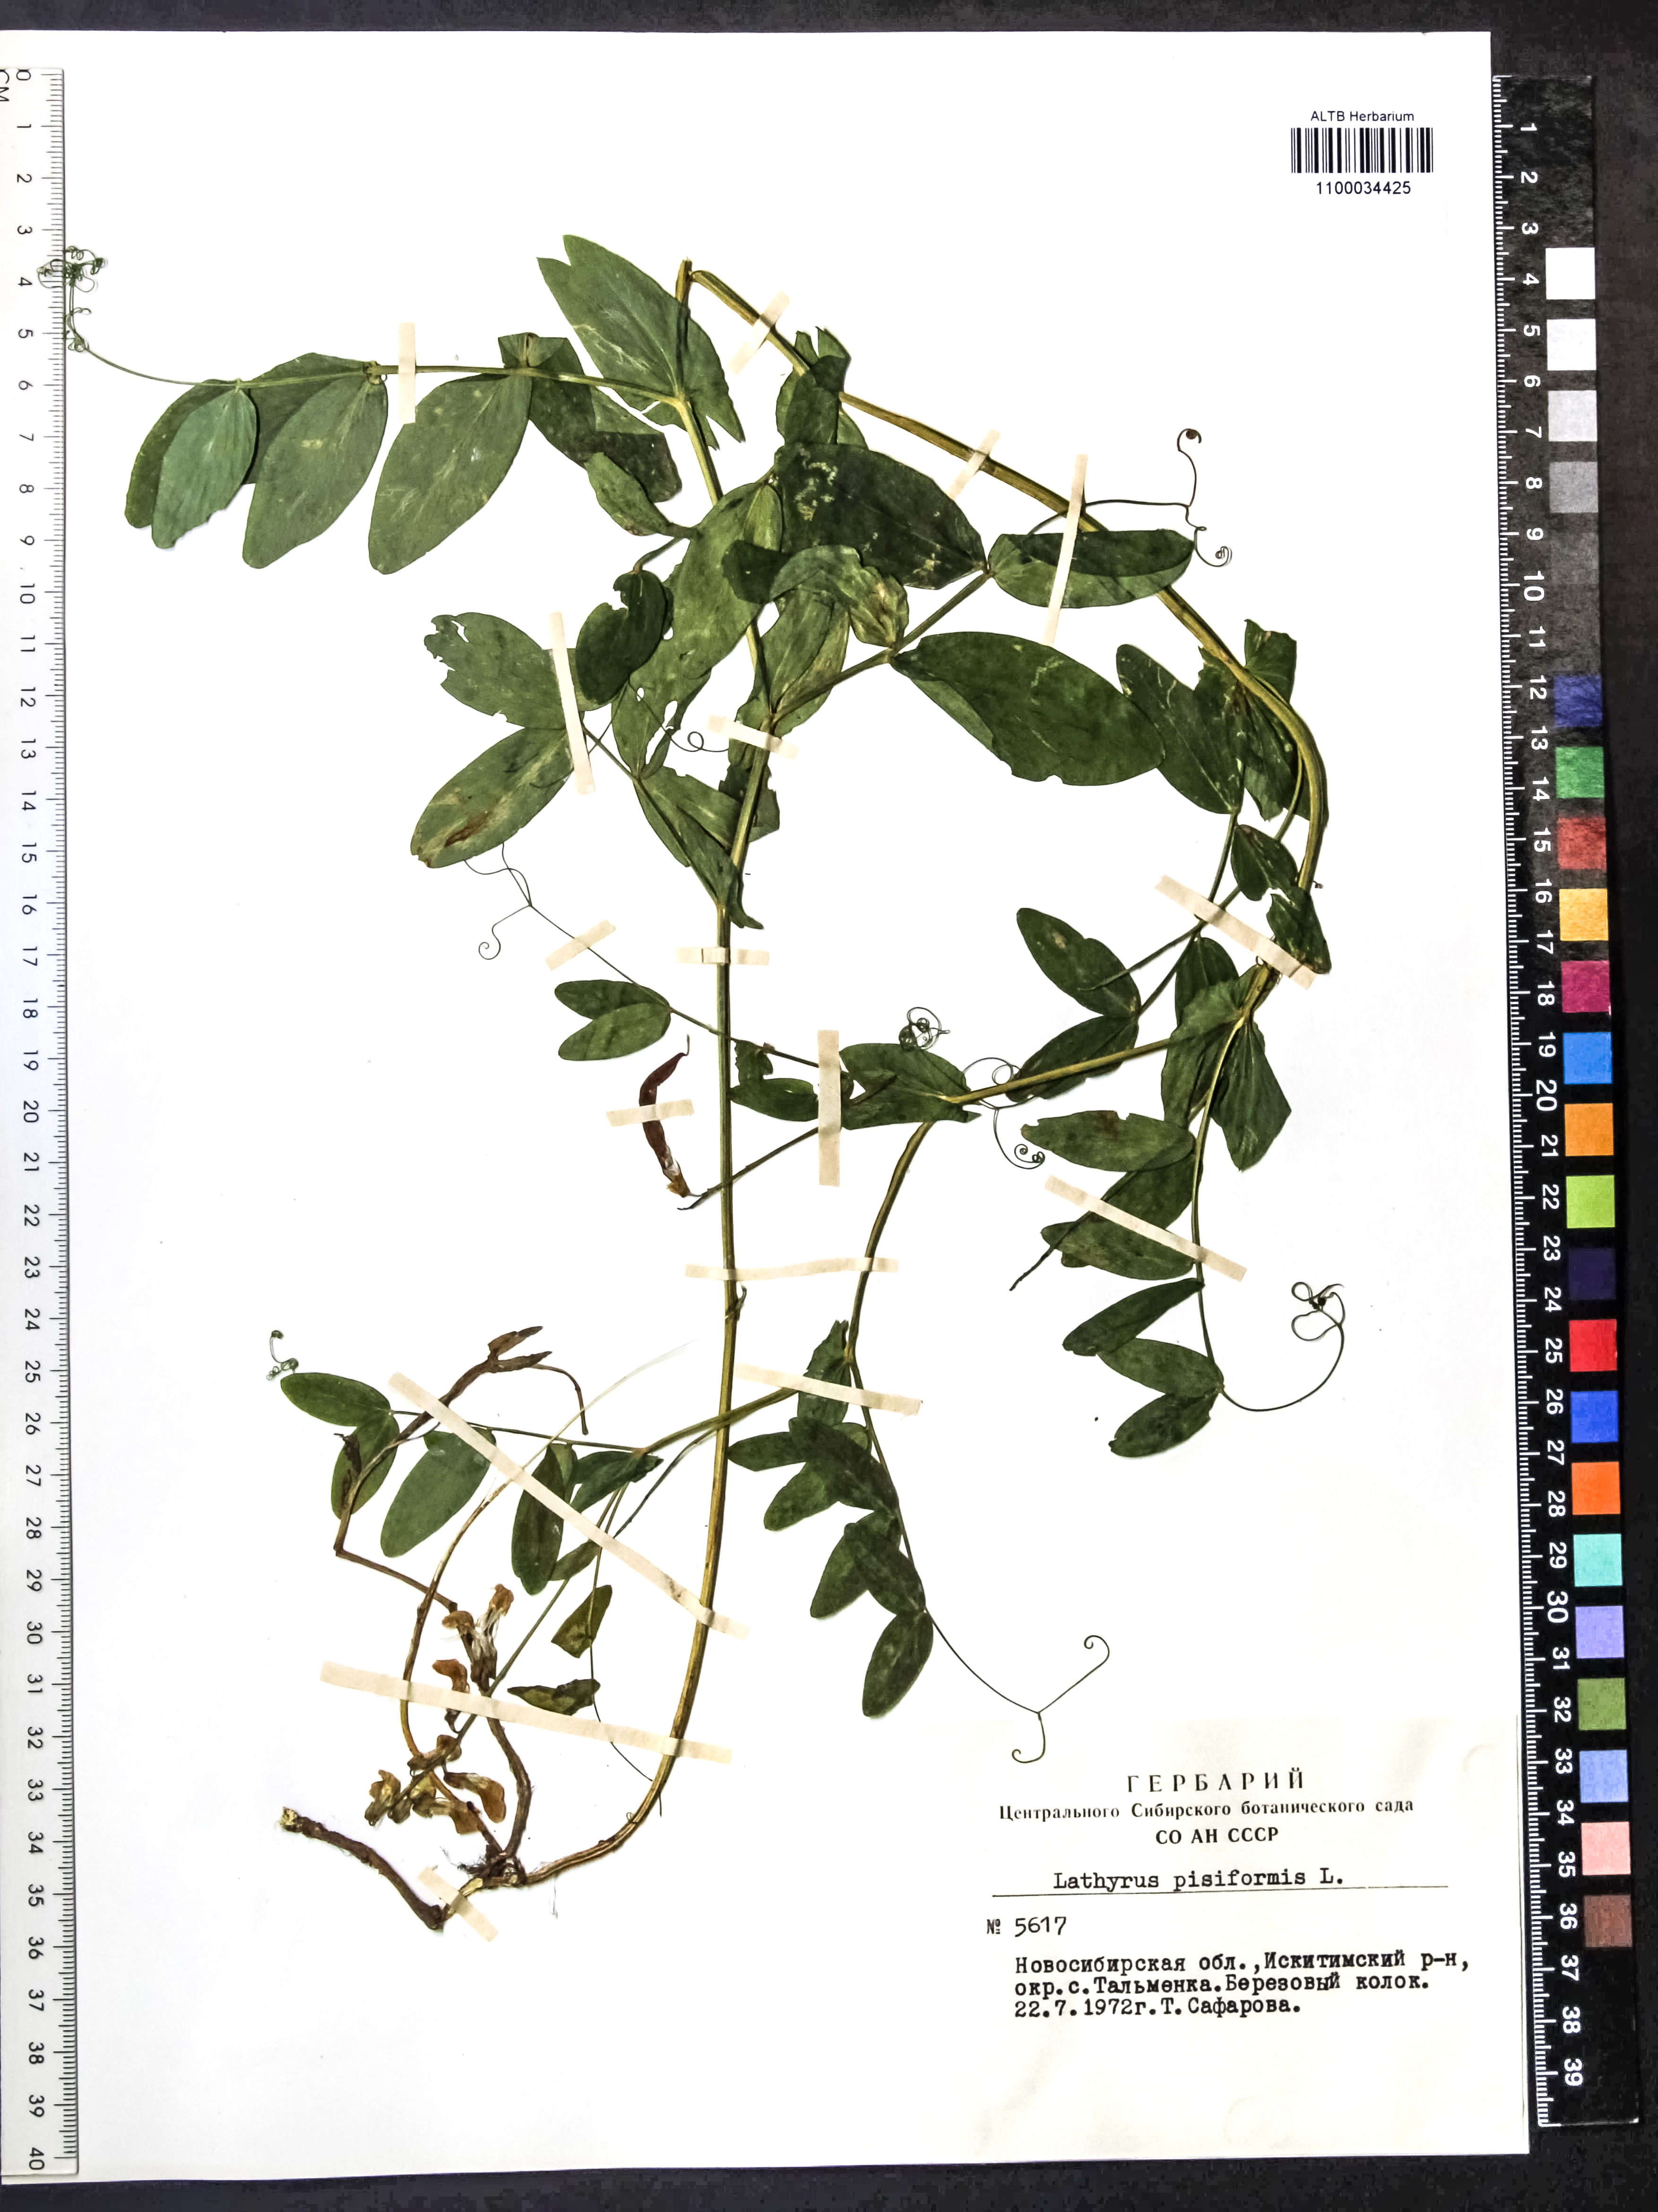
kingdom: Plantae
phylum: Tracheophyta
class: Magnoliopsida
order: Fabales
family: Fabaceae
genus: Lathyrus
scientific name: Lathyrus pisiformis
